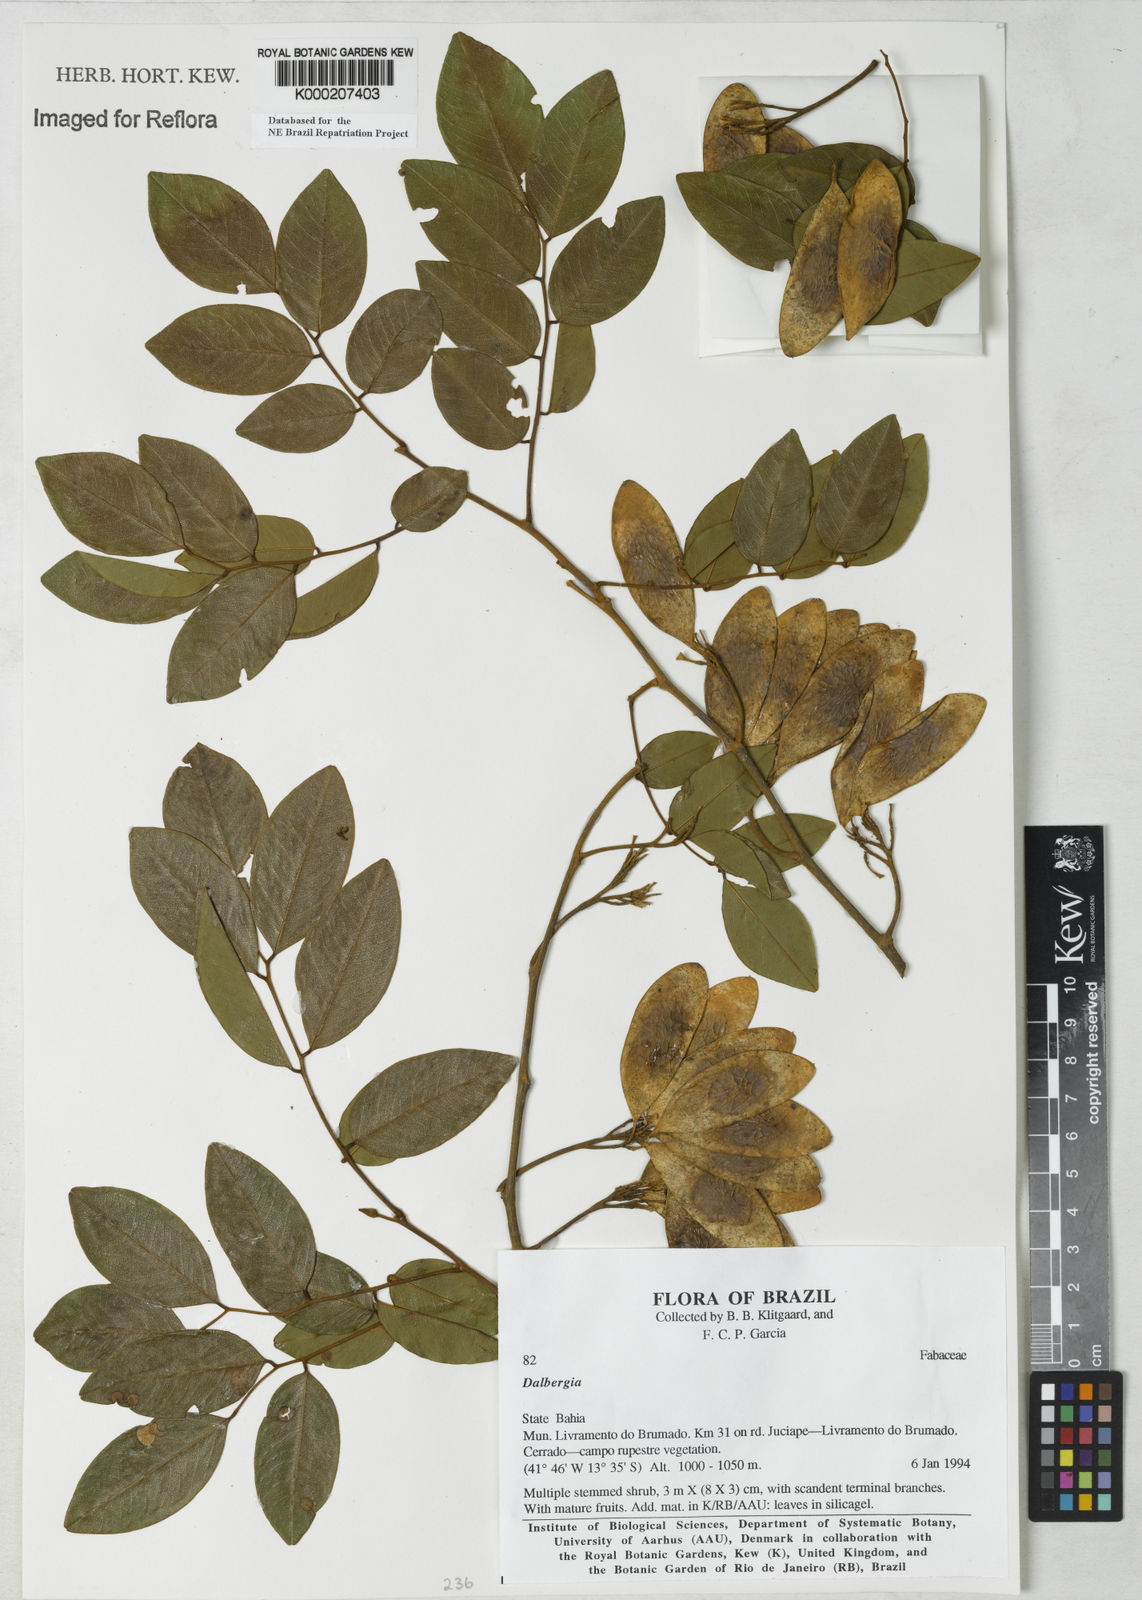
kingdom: Plantae
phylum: Tracheophyta
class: Magnoliopsida
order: Fabales
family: Fabaceae
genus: Dalbergia
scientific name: Dalbergia
